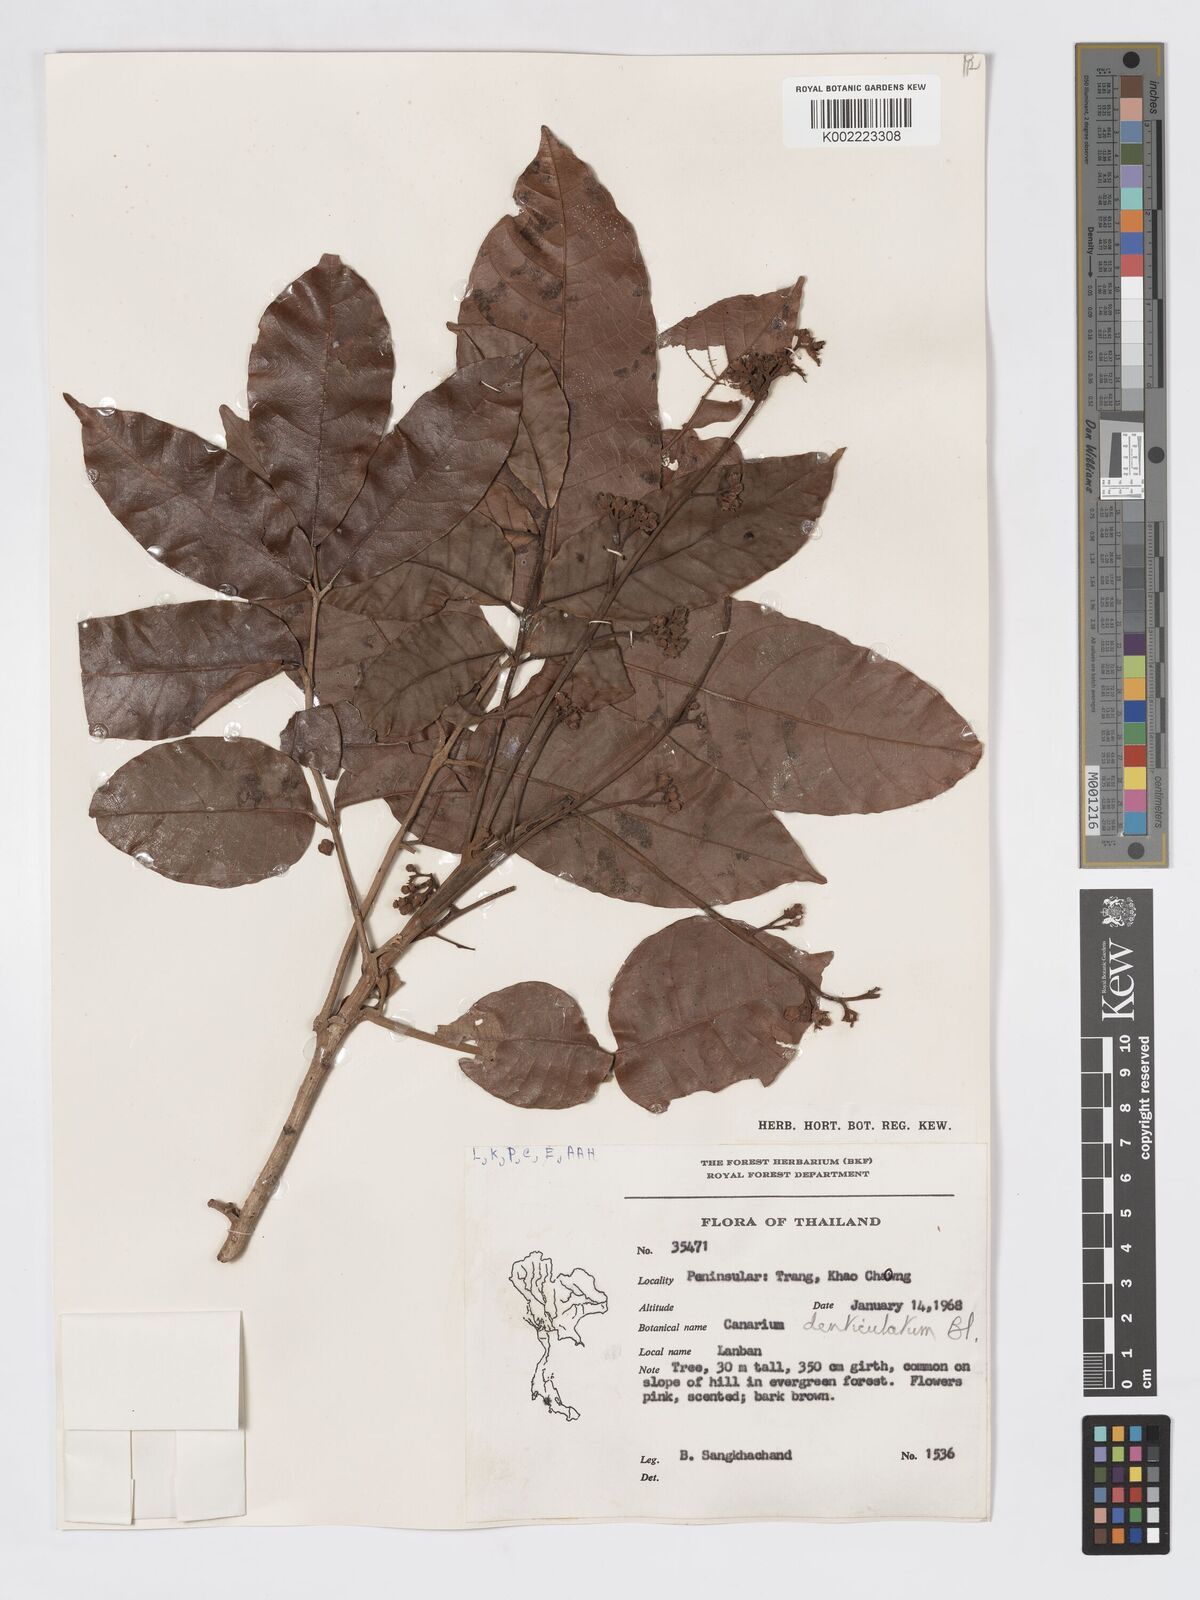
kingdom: Plantae
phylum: Tracheophyta
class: Magnoliopsida
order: Sapindales
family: Burseraceae
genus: Canarium
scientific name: Canarium denticulatum
